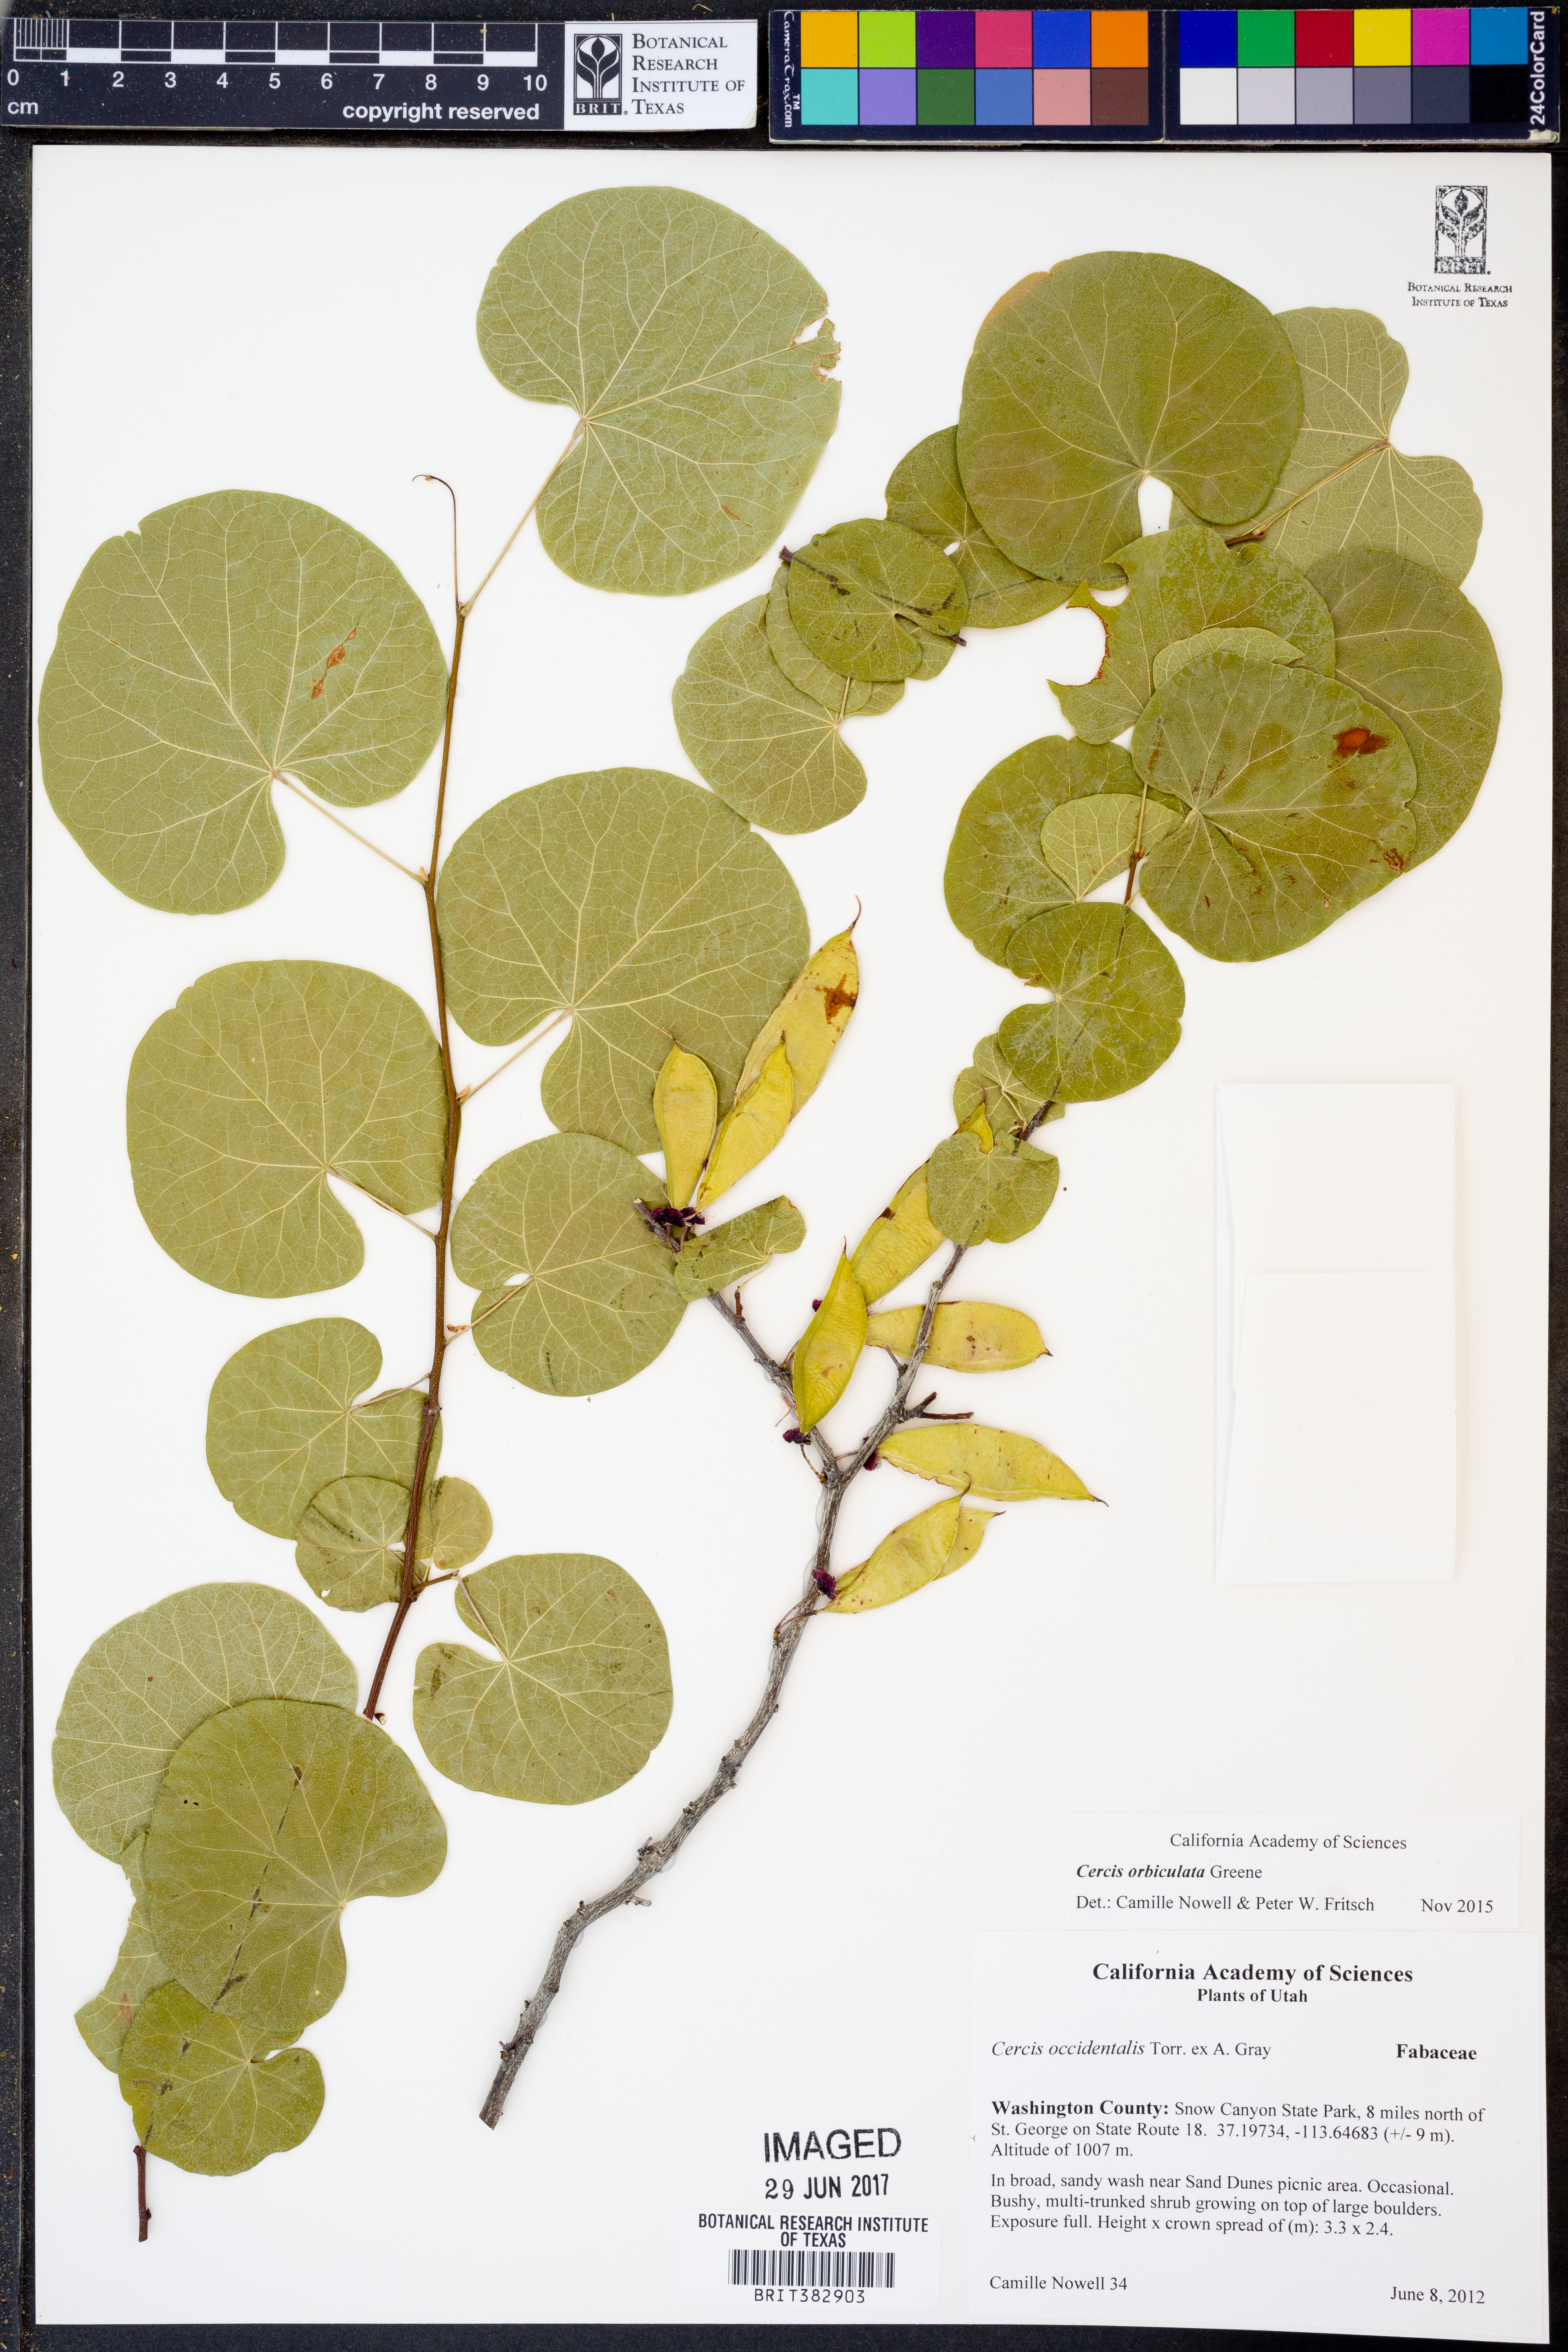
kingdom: Plantae
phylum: Tracheophyta
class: Magnoliopsida
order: Fabales
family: Fabaceae
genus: Cercis
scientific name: Cercis orbiculata
